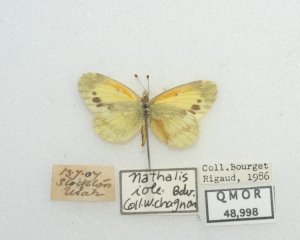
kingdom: Animalia
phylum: Arthropoda
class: Insecta
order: Lepidoptera
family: Pieridae
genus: Nathalis
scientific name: Nathalis iole
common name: Dainty Sulphur
